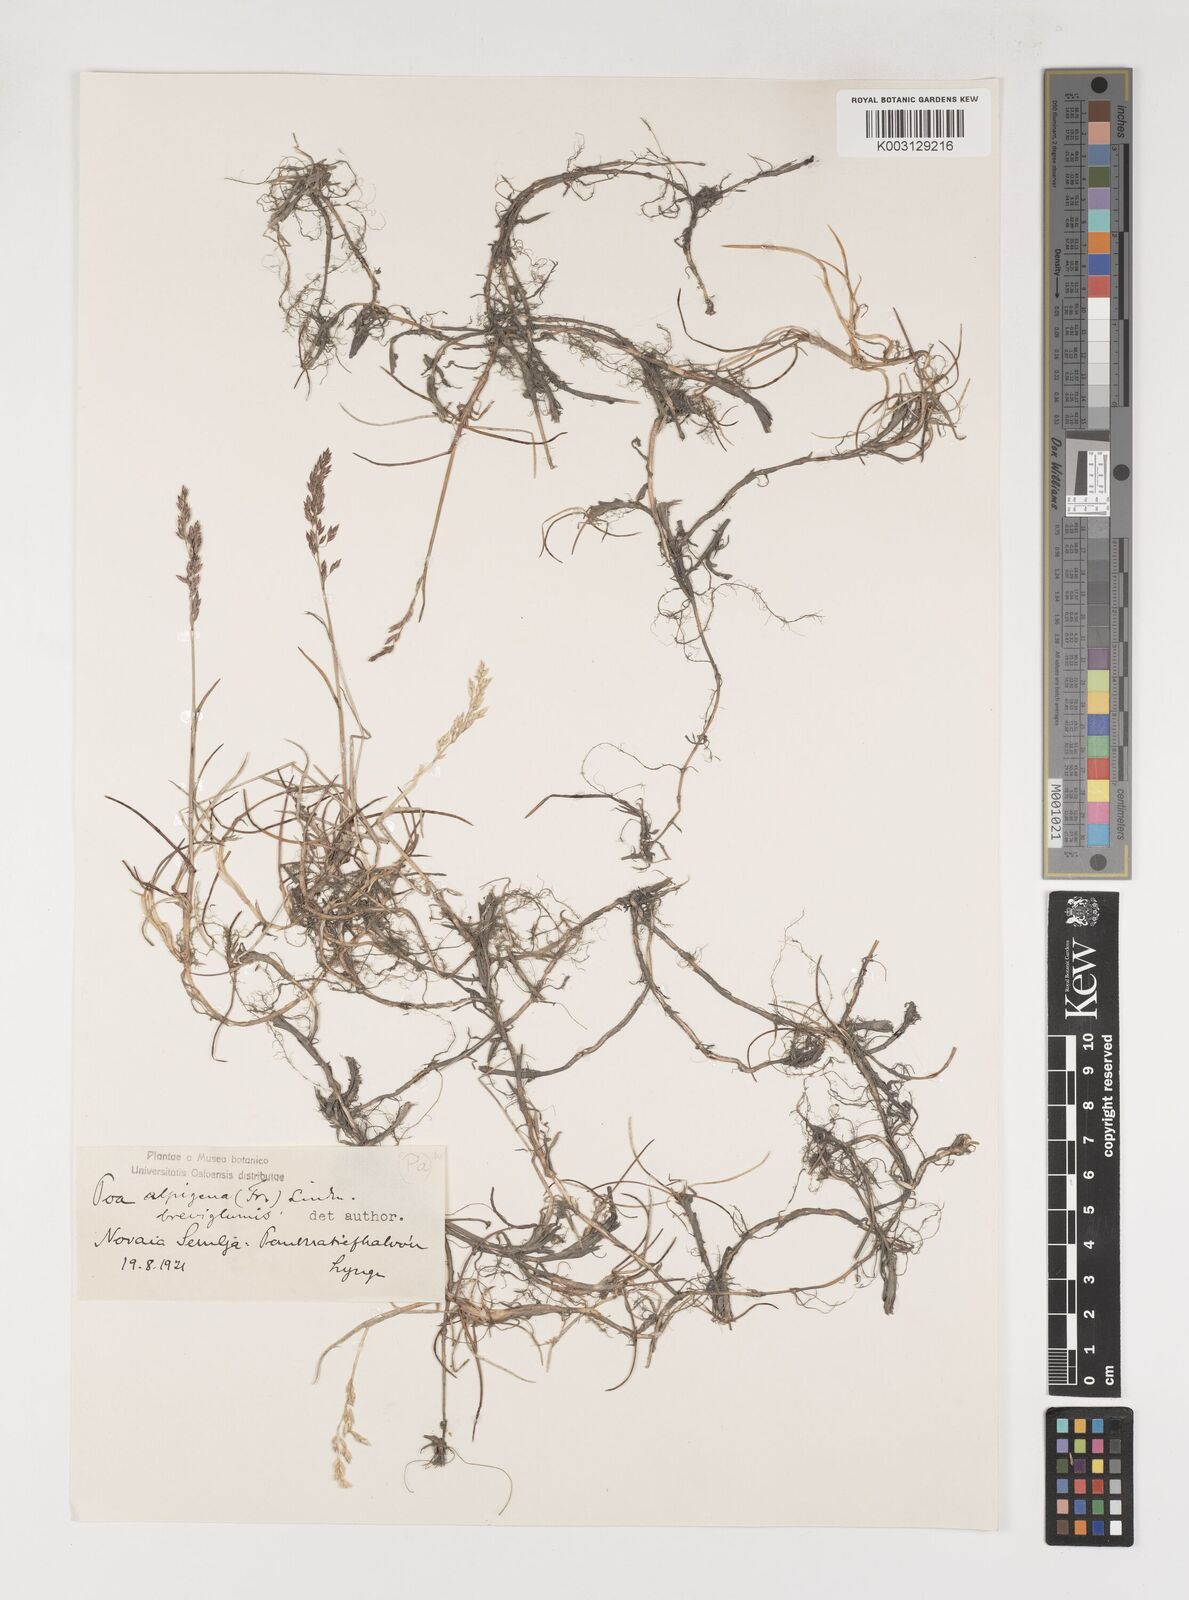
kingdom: Plantae
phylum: Tracheophyta
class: Liliopsida
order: Poales
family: Poaceae
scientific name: Poaceae
